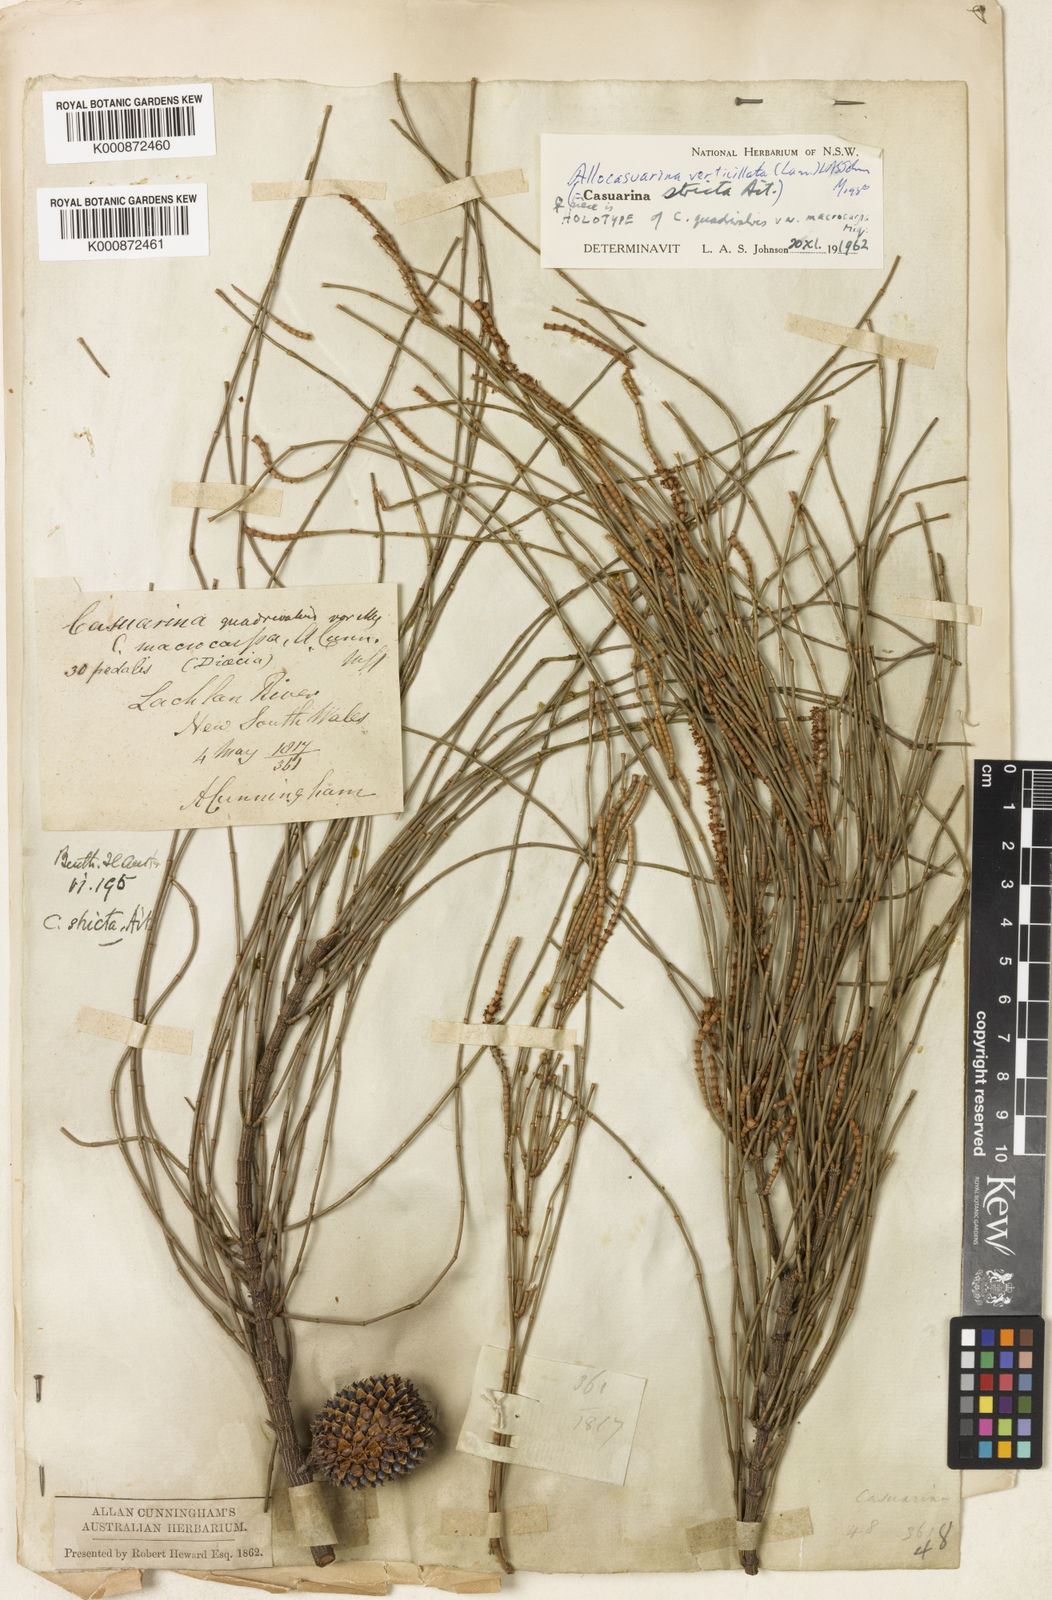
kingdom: Plantae
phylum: Tracheophyta
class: Magnoliopsida
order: Fagales
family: Casuarinaceae
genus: Allocasuarina
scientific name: Allocasuarina verticillata
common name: Drooping she-oak
